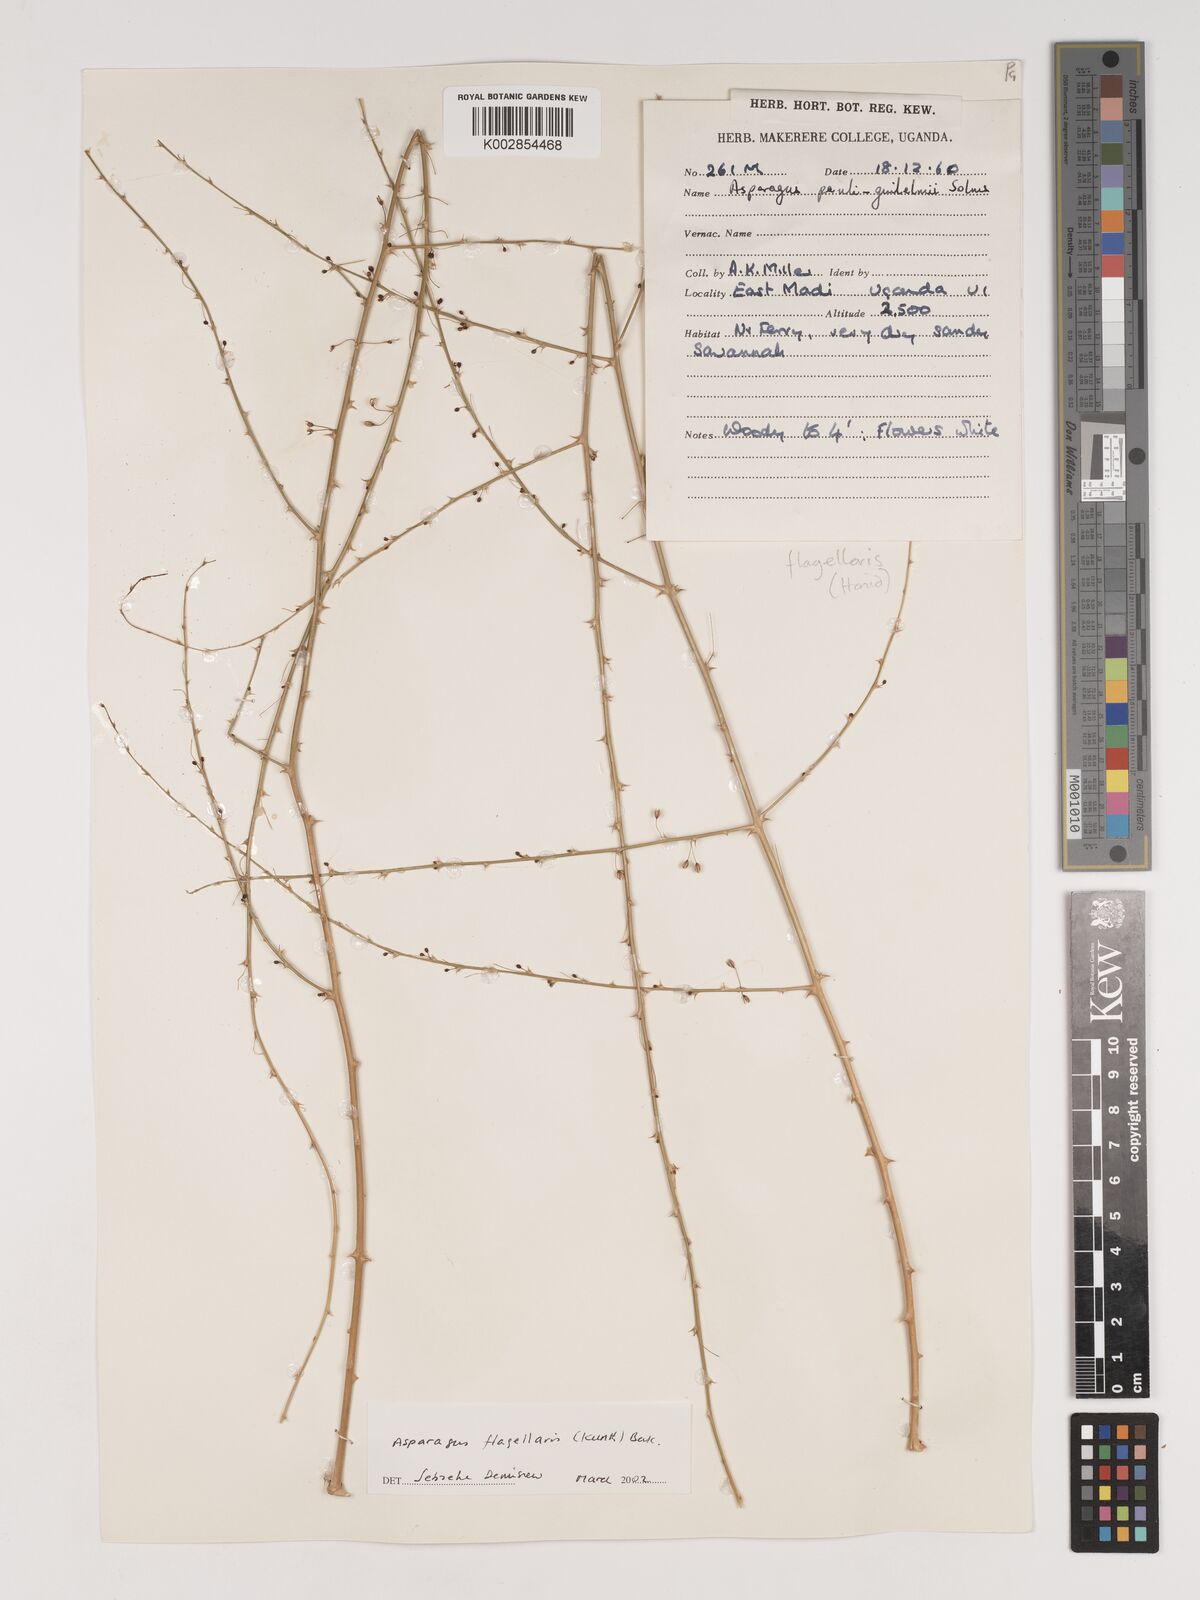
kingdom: Plantae
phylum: Tracheophyta
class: Liliopsida
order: Asparagales
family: Asparagaceae
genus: Asparagus
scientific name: Asparagus flagellaris
